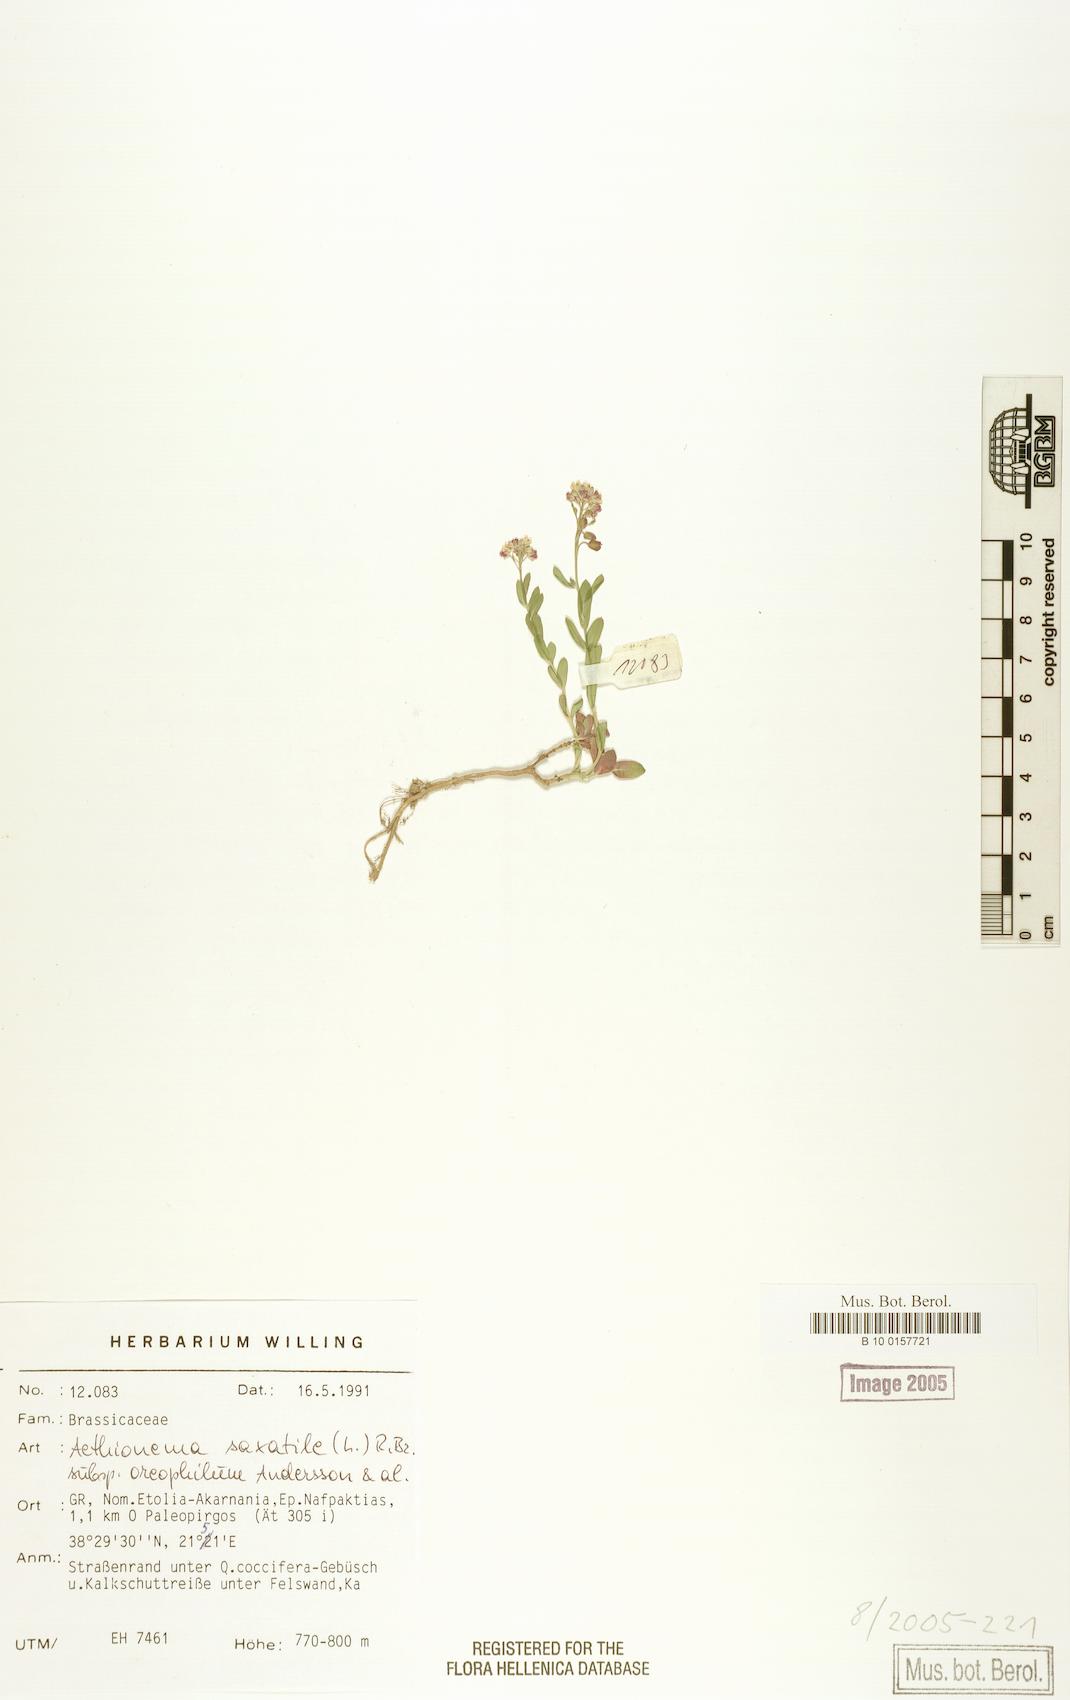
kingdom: Plantae
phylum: Tracheophyta
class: Magnoliopsida
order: Brassicales
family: Brassicaceae
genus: Aethionema
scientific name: Aethionema saxatile
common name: Burnt candytuft
